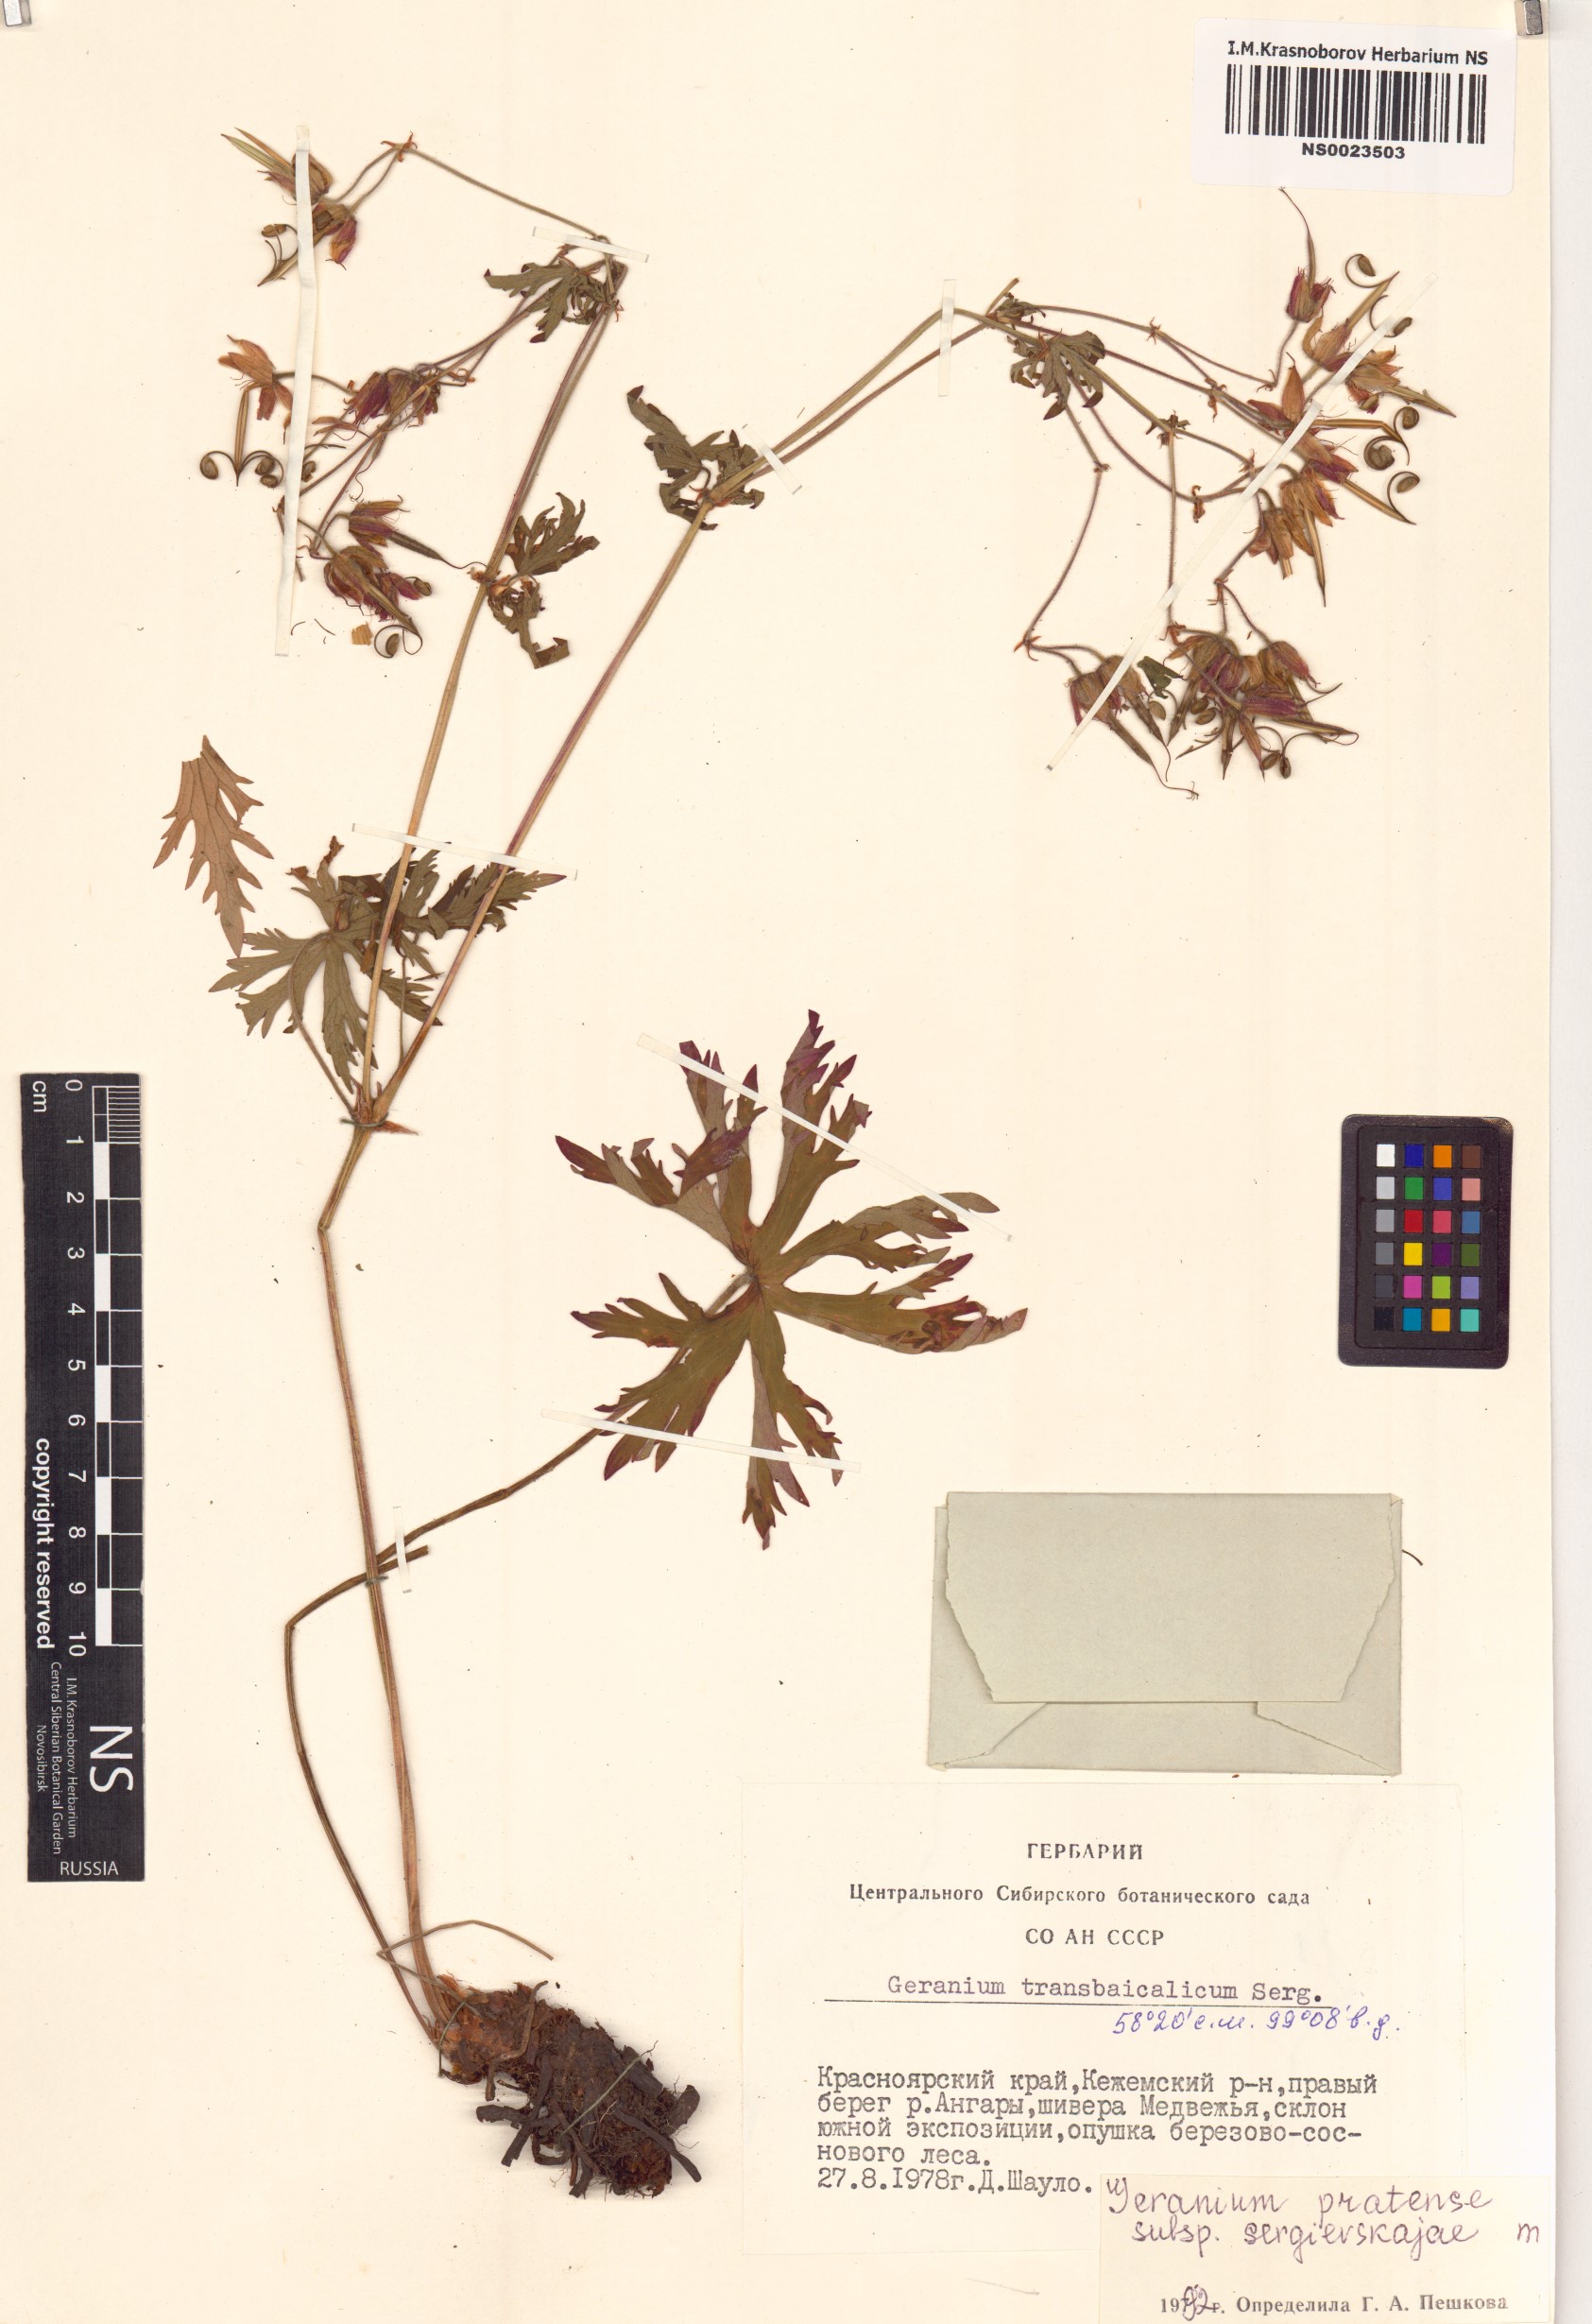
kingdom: Plantae
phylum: Tracheophyta
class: Magnoliopsida
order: Geraniales
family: Geraniaceae
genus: Geranium
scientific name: Geranium pratense
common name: Meadow crane's-bill
